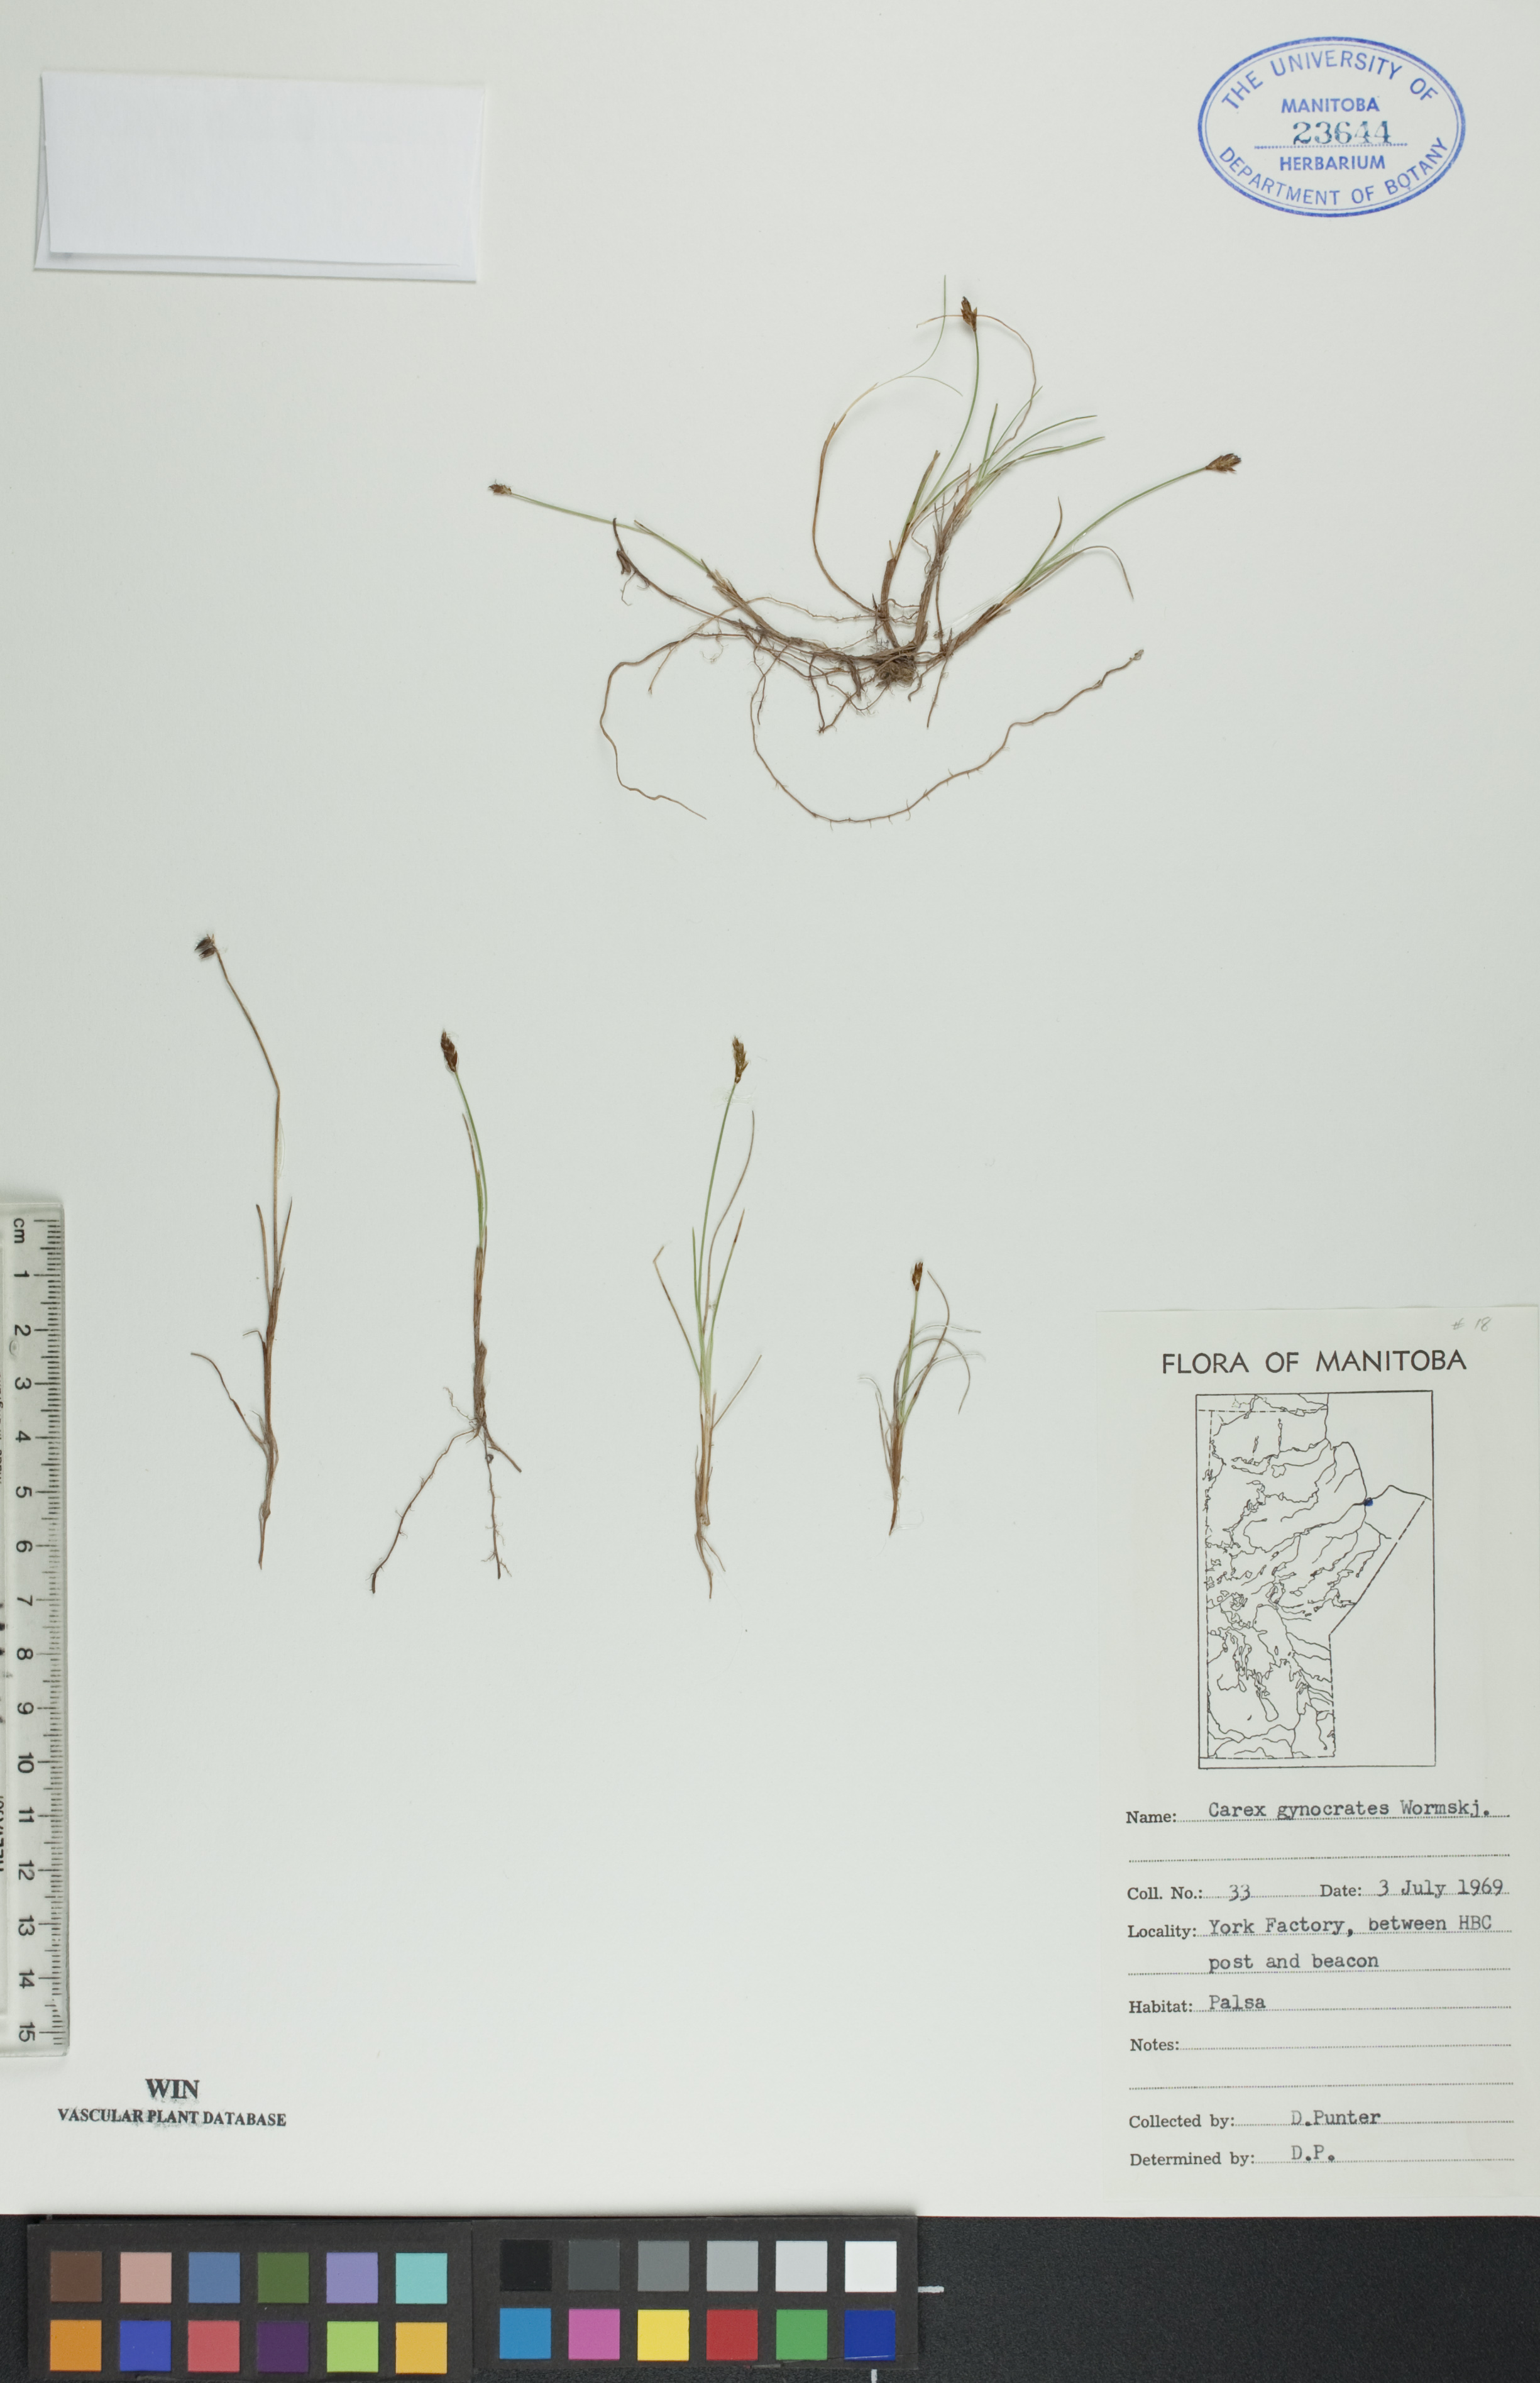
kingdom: Plantae
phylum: Tracheophyta
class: Liliopsida
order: Poales
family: Cyperaceae
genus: Carex
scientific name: Carex nardina
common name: Nard sedge
